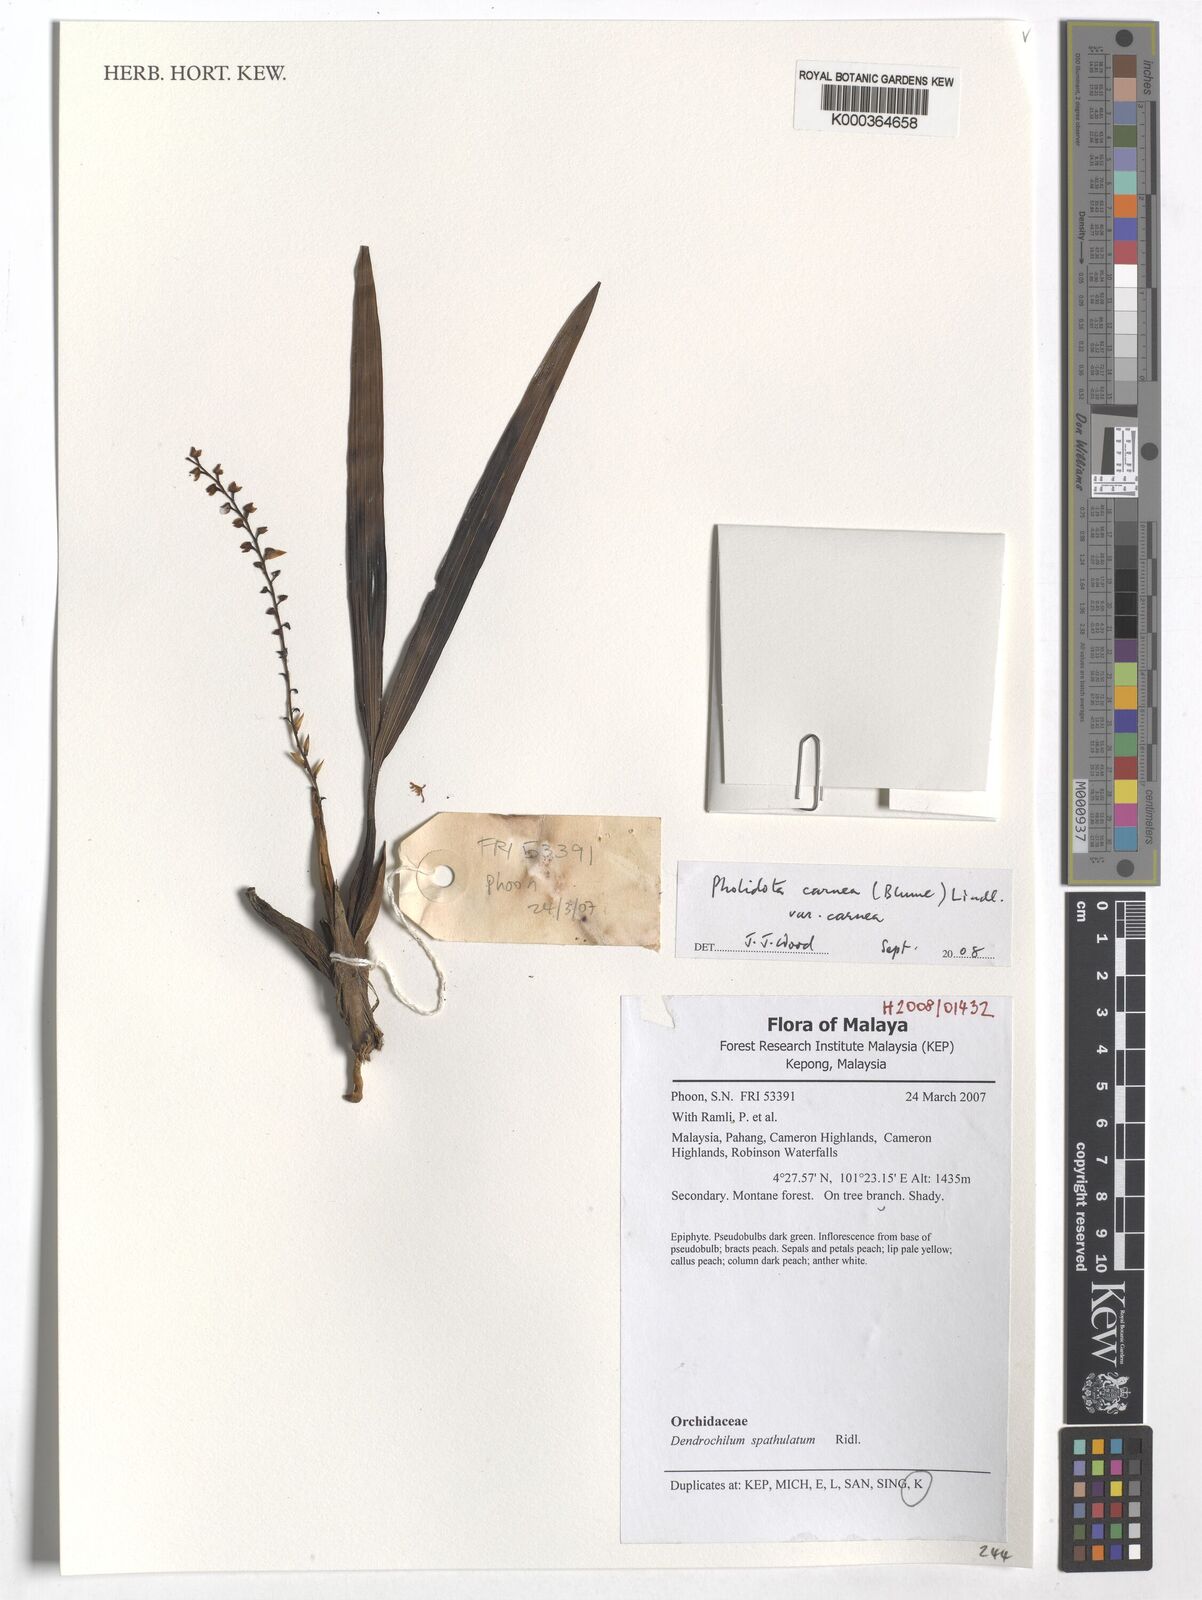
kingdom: Plantae
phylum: Tracheophyta
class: Liliopsida
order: Asparagales
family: Orchidaceae
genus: Coelogyne
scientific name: Coelogyne pallidiflavens
